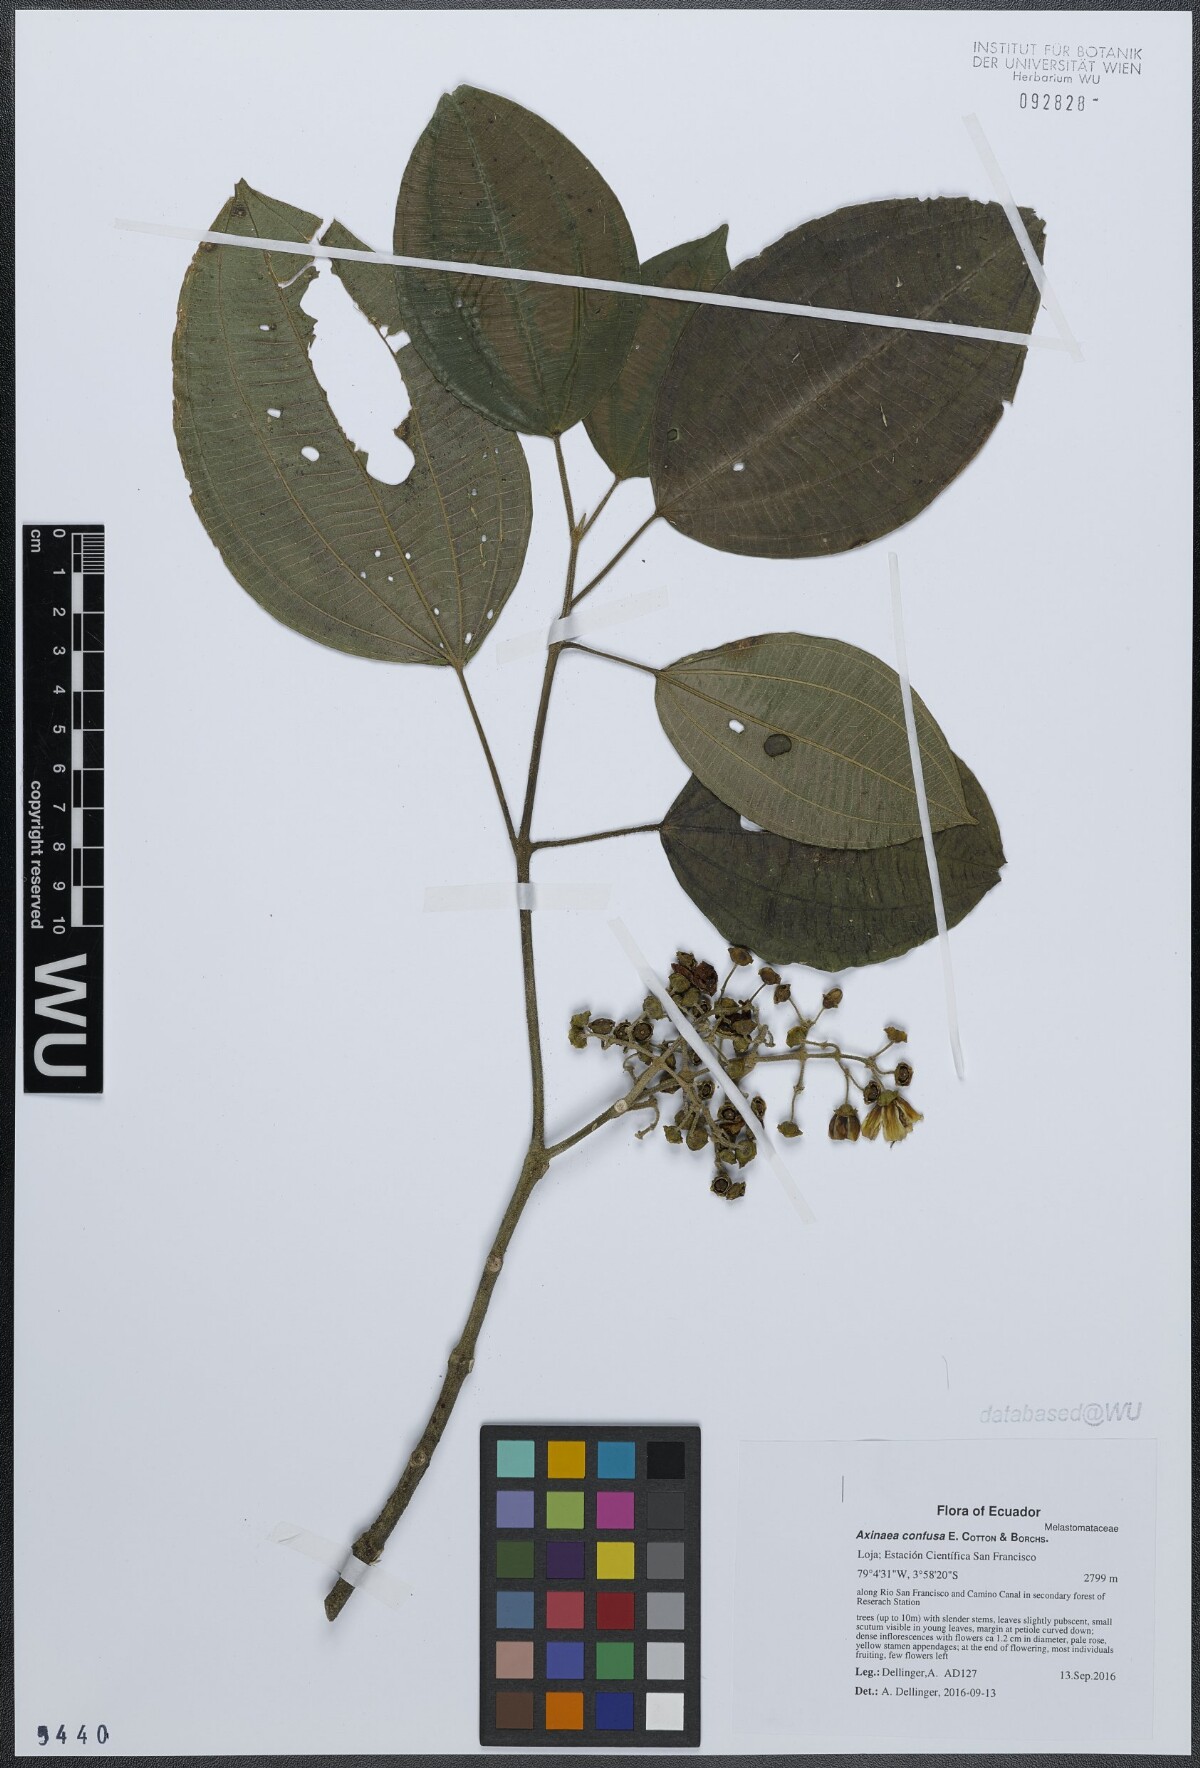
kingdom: Plantae
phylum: Tracheophyta
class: Magnoliopsida
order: Myrtales
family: Melastomataceae
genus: Axinaea
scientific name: Axinaea confusa
